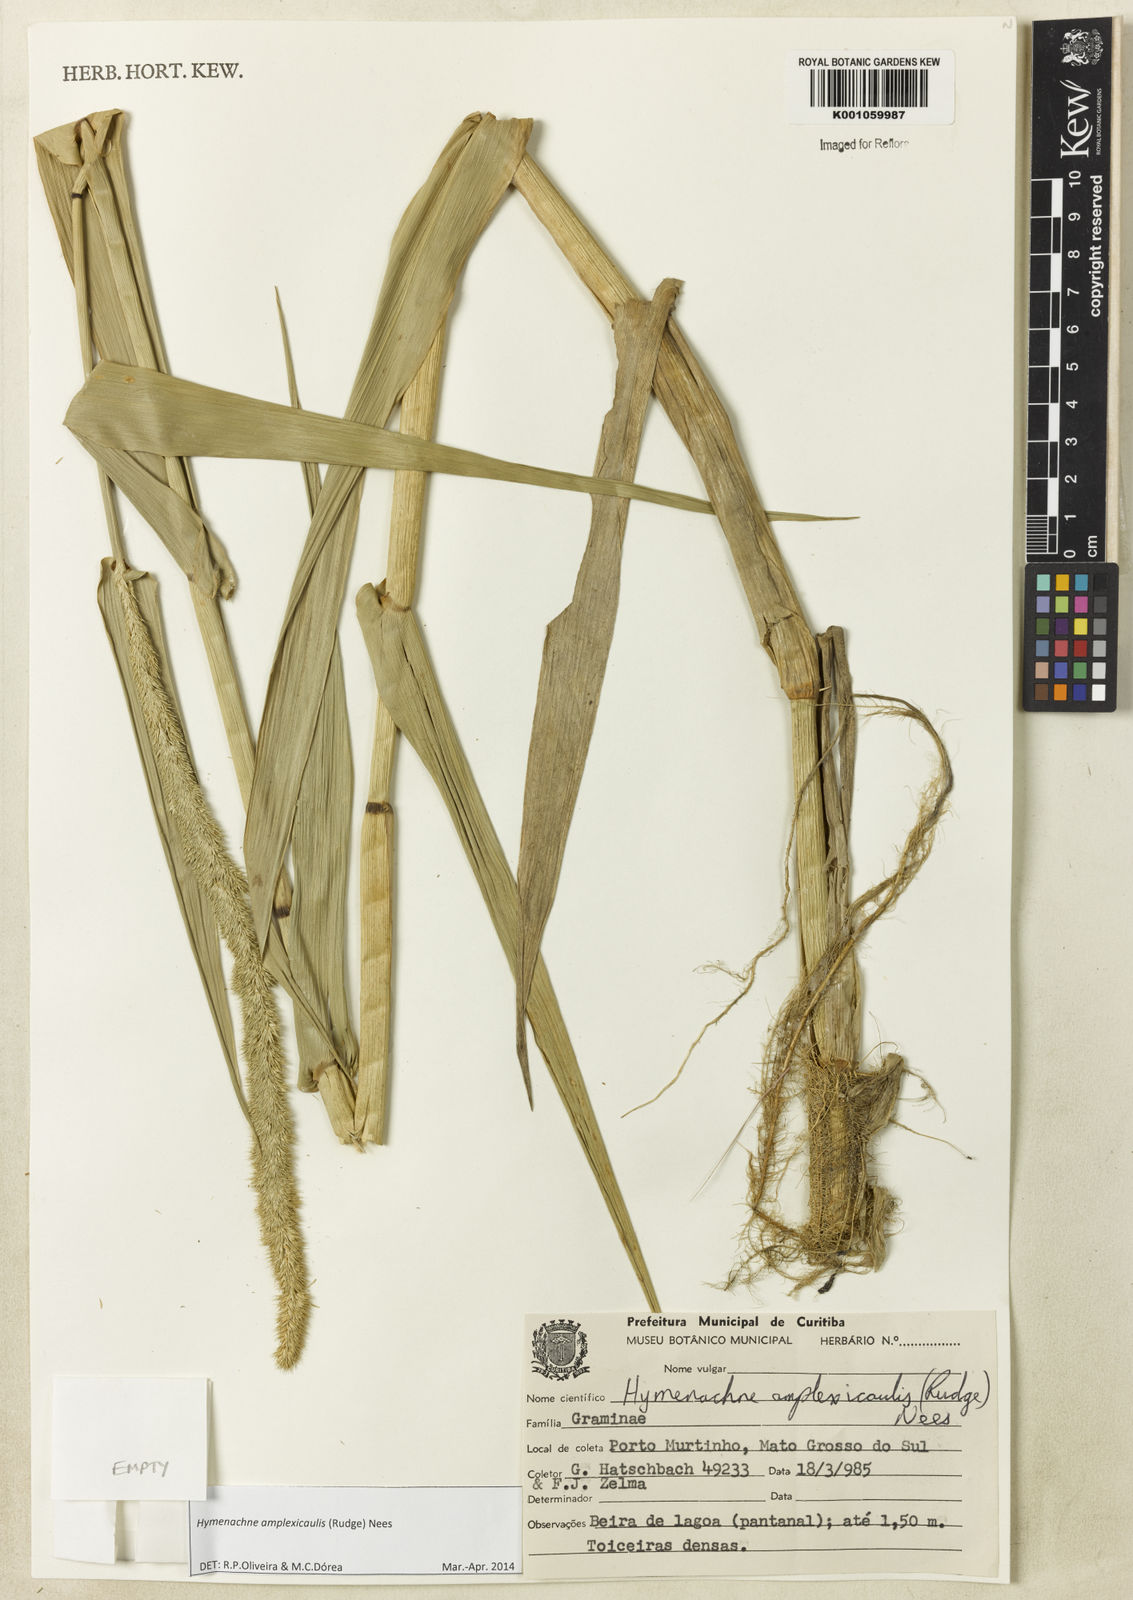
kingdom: Plantae
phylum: Tracheophyta
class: Liliopsida
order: Poales
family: Poaceae
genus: Hymenachne
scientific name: Hymenachne amplexicaulis
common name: Olive hymenachne
